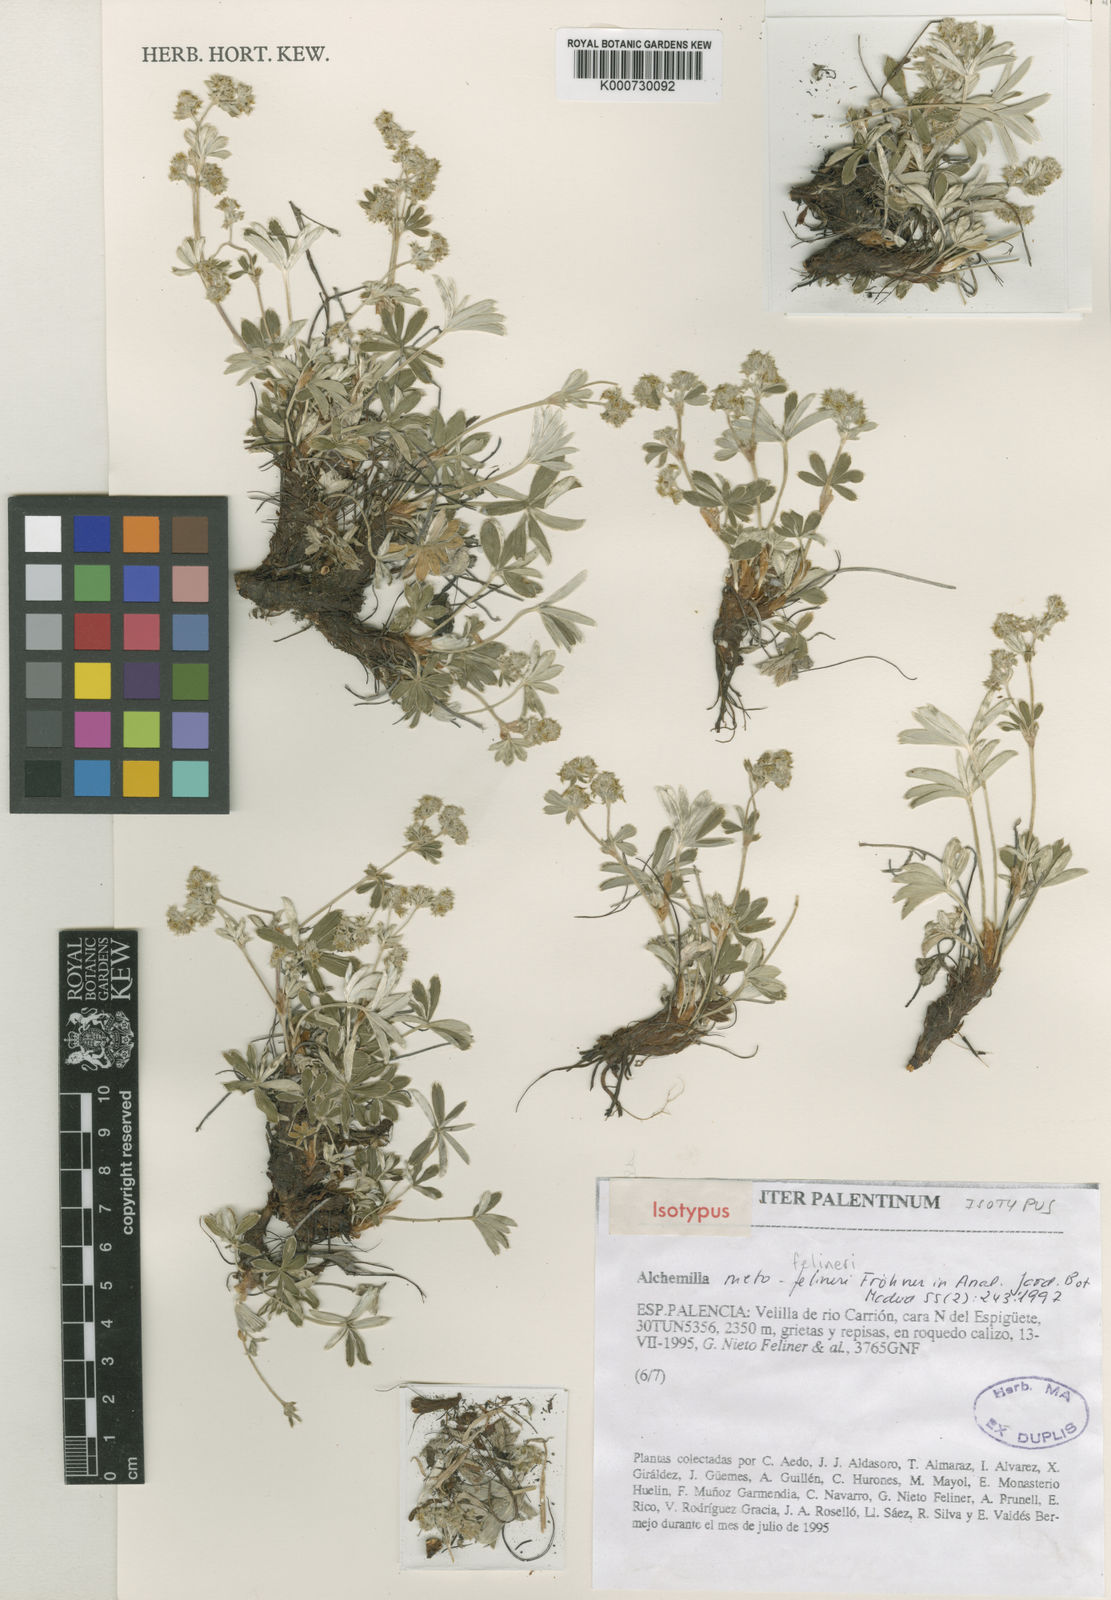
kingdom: Plantae
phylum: Tracheophyta
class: Magnoliopsida
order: Rosales
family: Rosaceae
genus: Alchemilla
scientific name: Alchemilla
